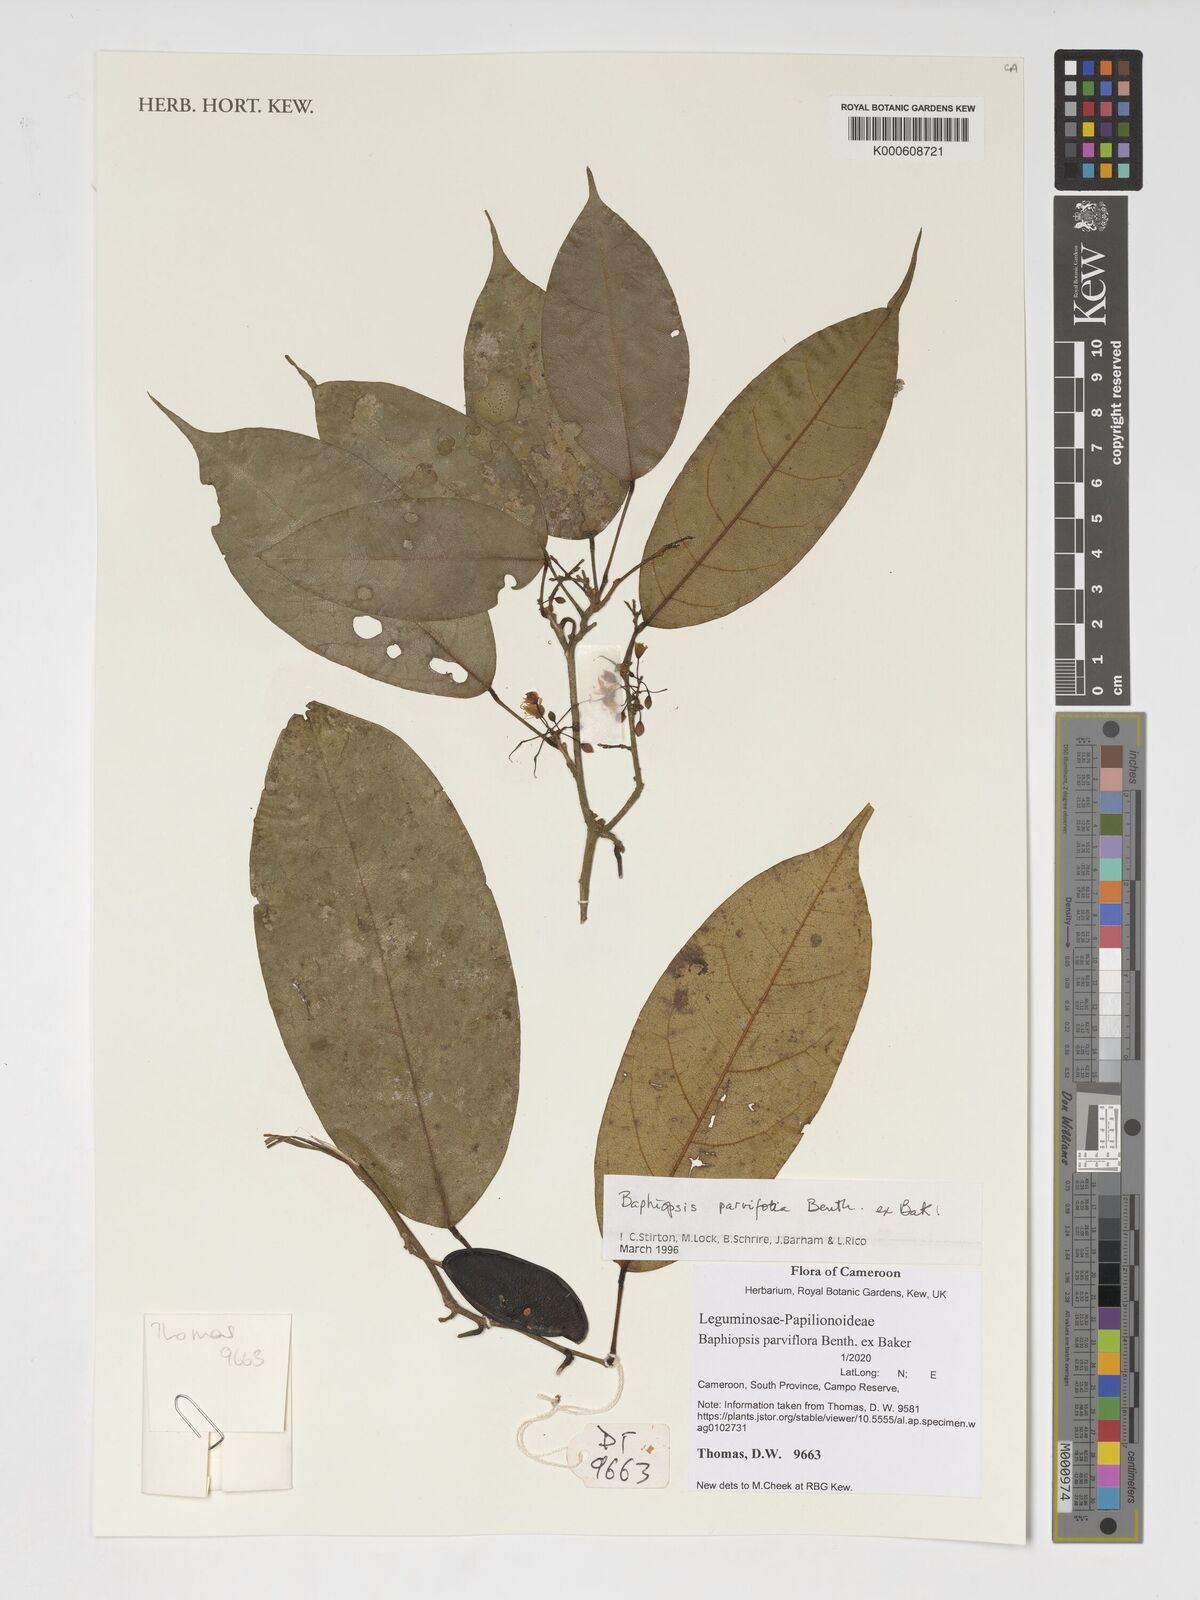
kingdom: Plantae
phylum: Tracheophyta
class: Magnoliopsida
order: Fabales
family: Fabaceae
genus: Baphiopsis
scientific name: Baphiopsis parviflora
